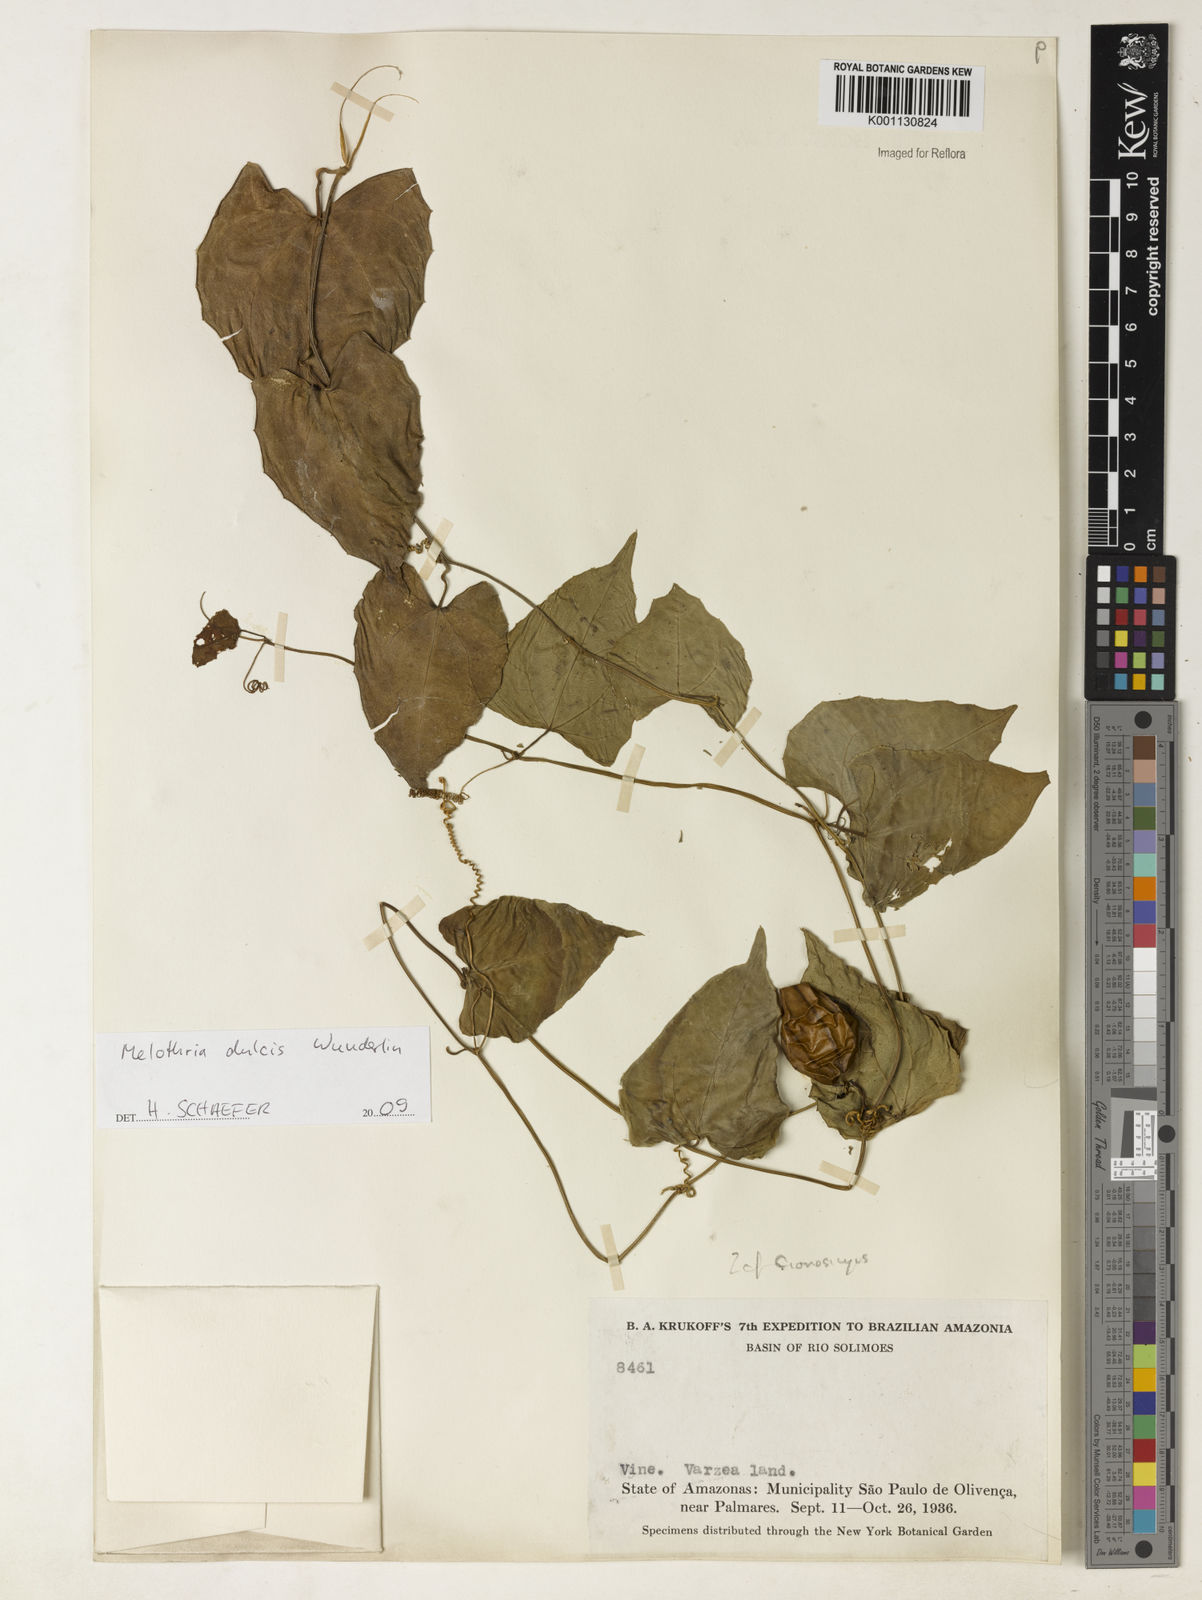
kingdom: Plantae
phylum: Tracheophyta
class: Magnoliopsida
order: Cucurbitales
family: Cucurbitaceae
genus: Melothria
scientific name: Melothria dulcis
